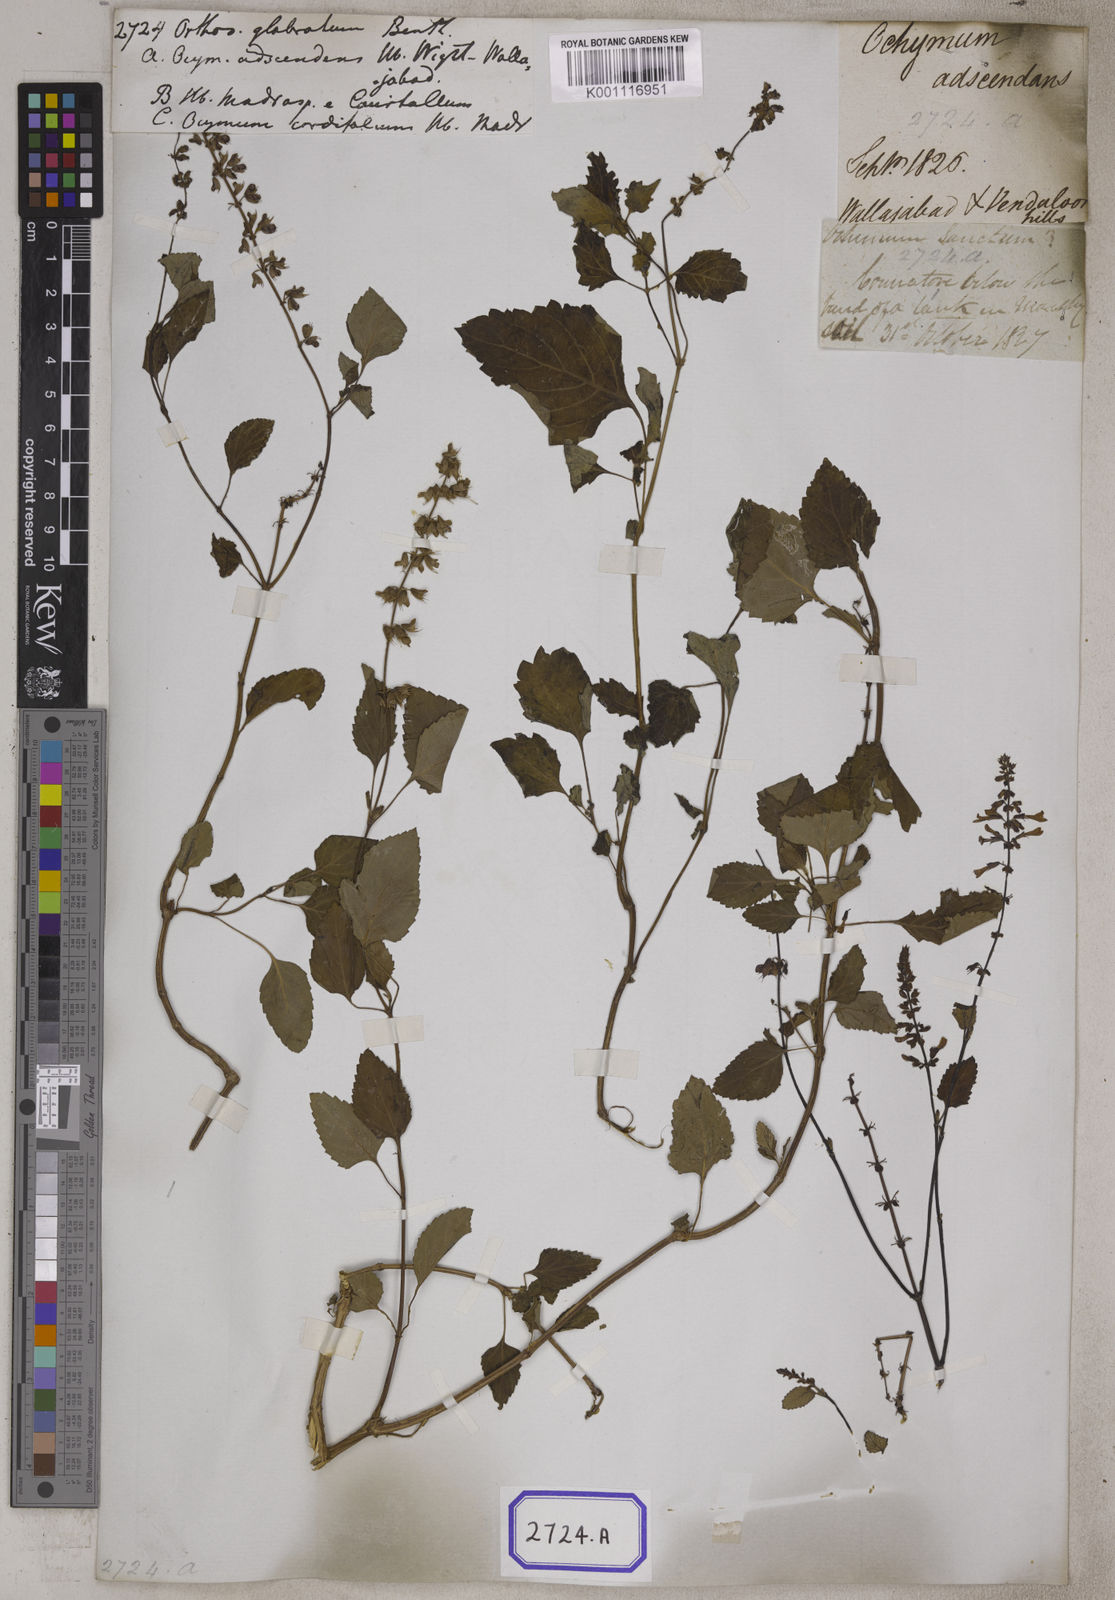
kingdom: Plantae
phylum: Tracheophyta
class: Magnoliopsida
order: Lamiales
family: Lamiaceae
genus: Orthosiphon
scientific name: Orthosiphon thymiflorus
